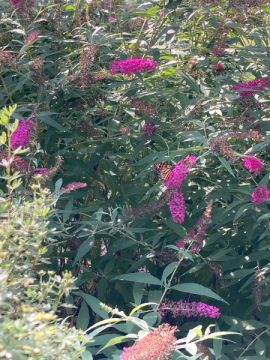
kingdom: Animalia
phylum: Arthropoda
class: Insecta
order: Lepidoptera
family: Nymphalidae
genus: Danaus
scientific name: Danaus plexippus
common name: Monarch
